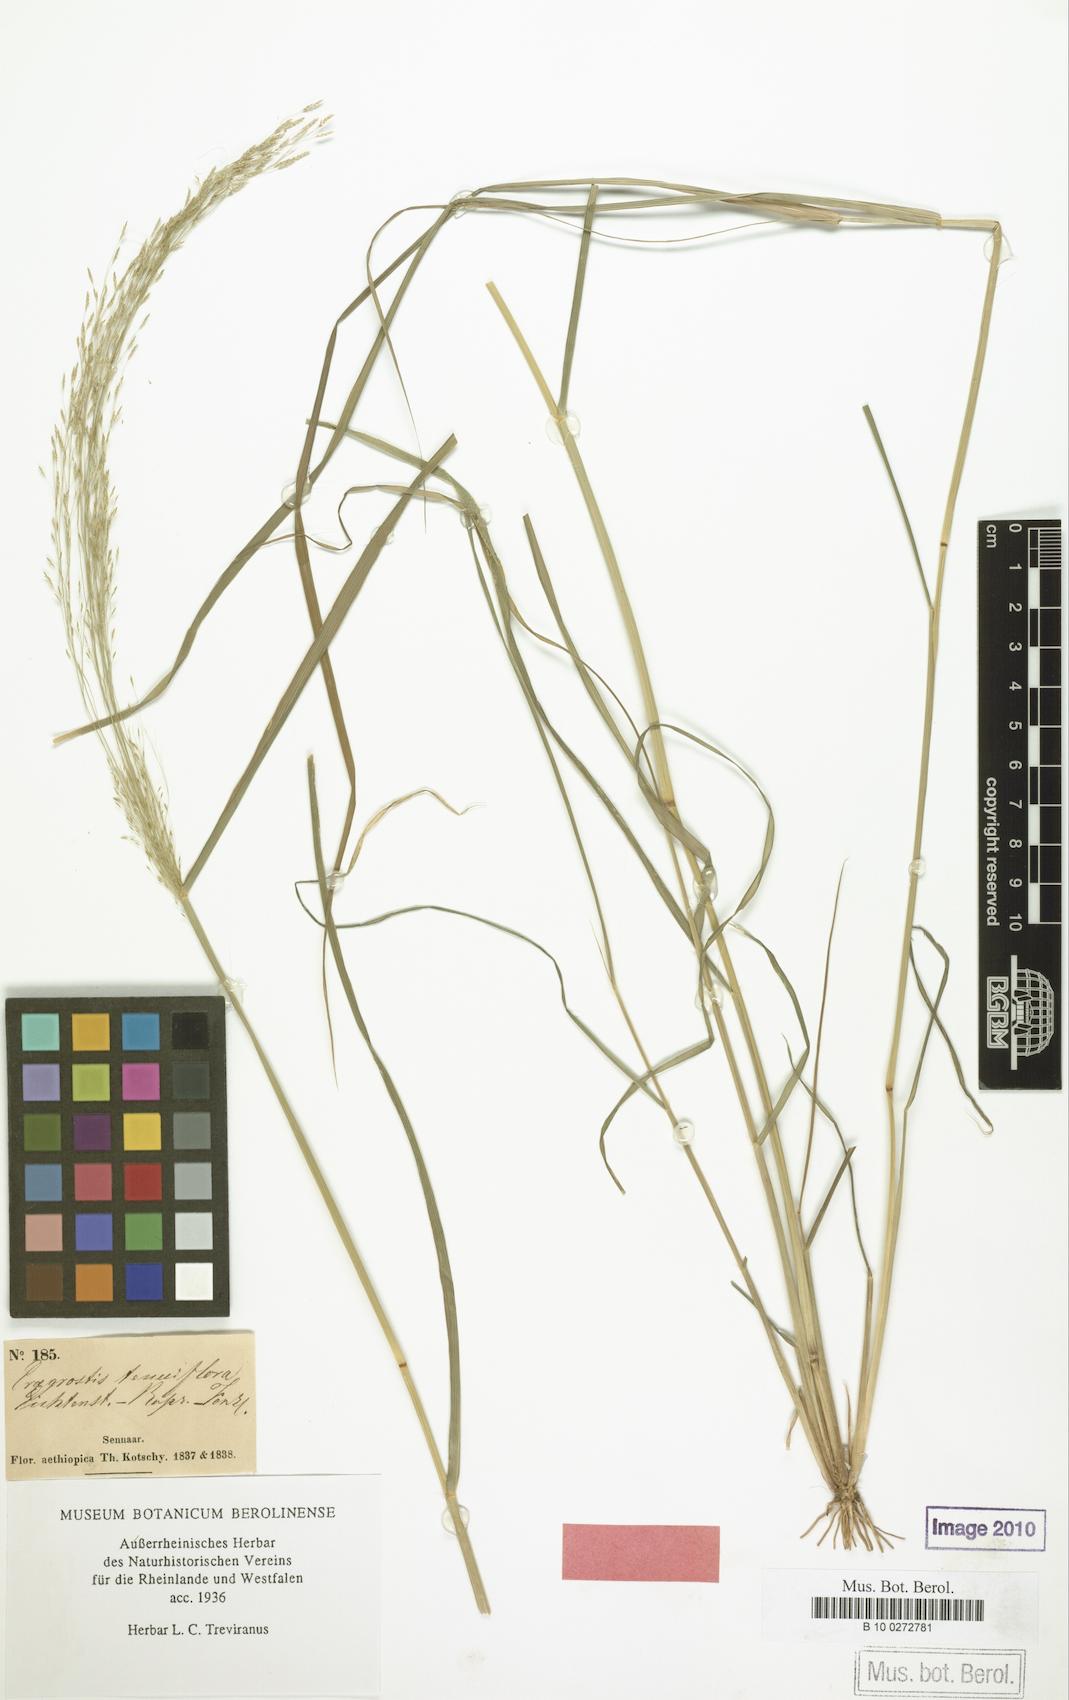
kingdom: Plantae
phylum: Tracheophyta
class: Liliopsida
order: Poales
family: Poaceae
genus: Eragrostis
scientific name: Eragrostis pilosa
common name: Indian lovegrass
